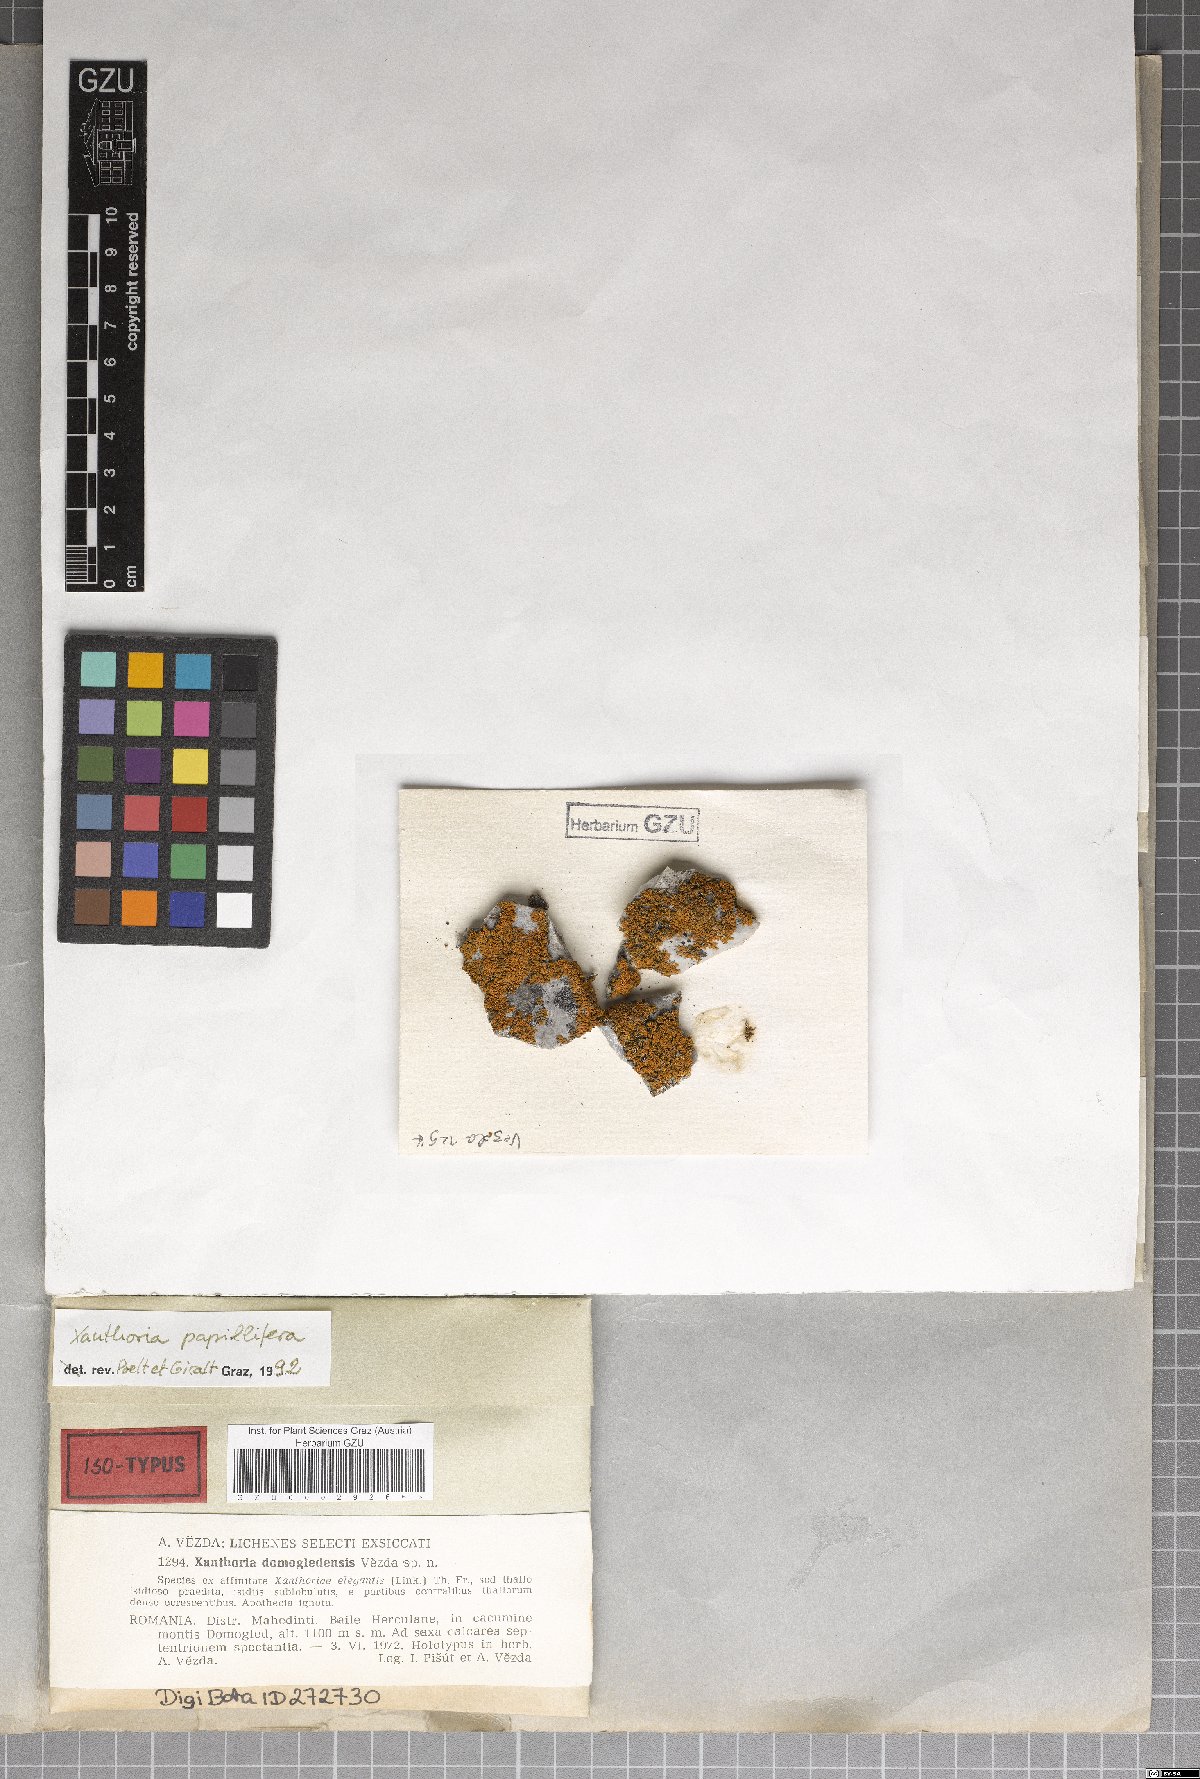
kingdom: Fungi
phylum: Ascomycota
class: Lecanoromycetes
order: Teloschistales
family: Teloschistaceae
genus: Zeroviella
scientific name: Zeroviella domogledensis
